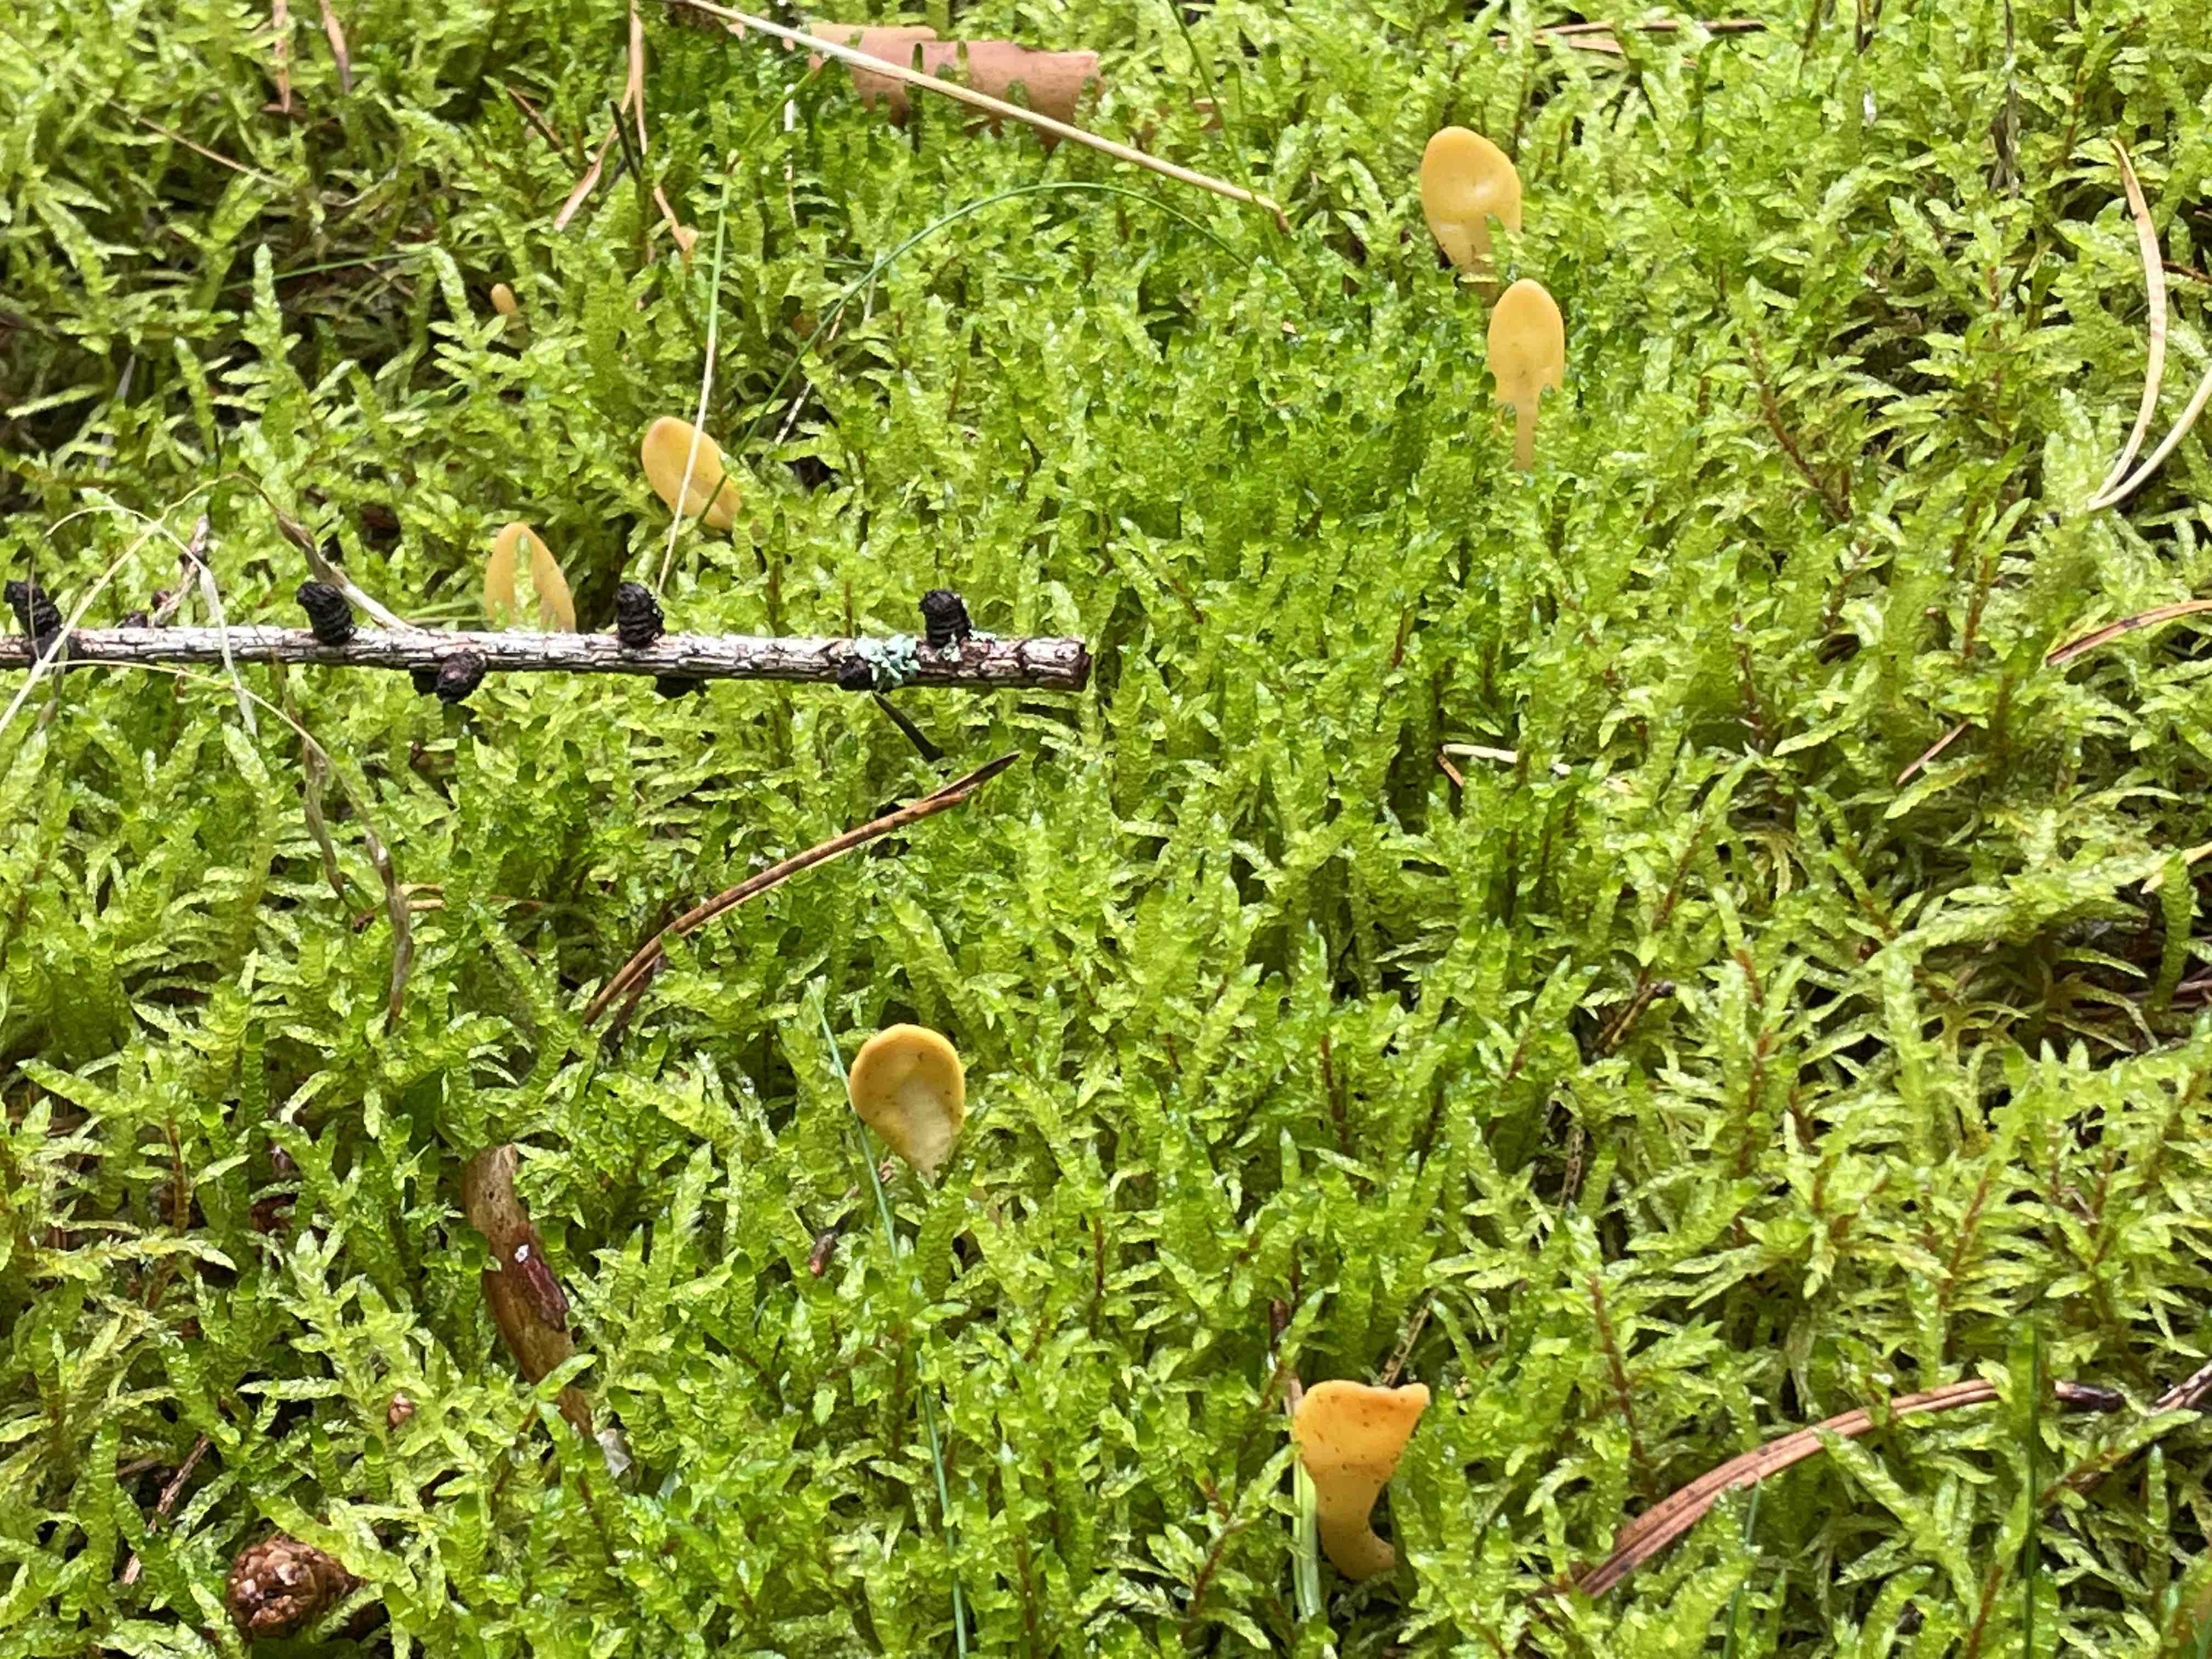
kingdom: Fungi
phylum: Ascomycota
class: Leotiomycetes
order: Rhytismatales
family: Cudoniaceae
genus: Spathularia
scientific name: Spathularia flavida
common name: gul spatelsvamp
